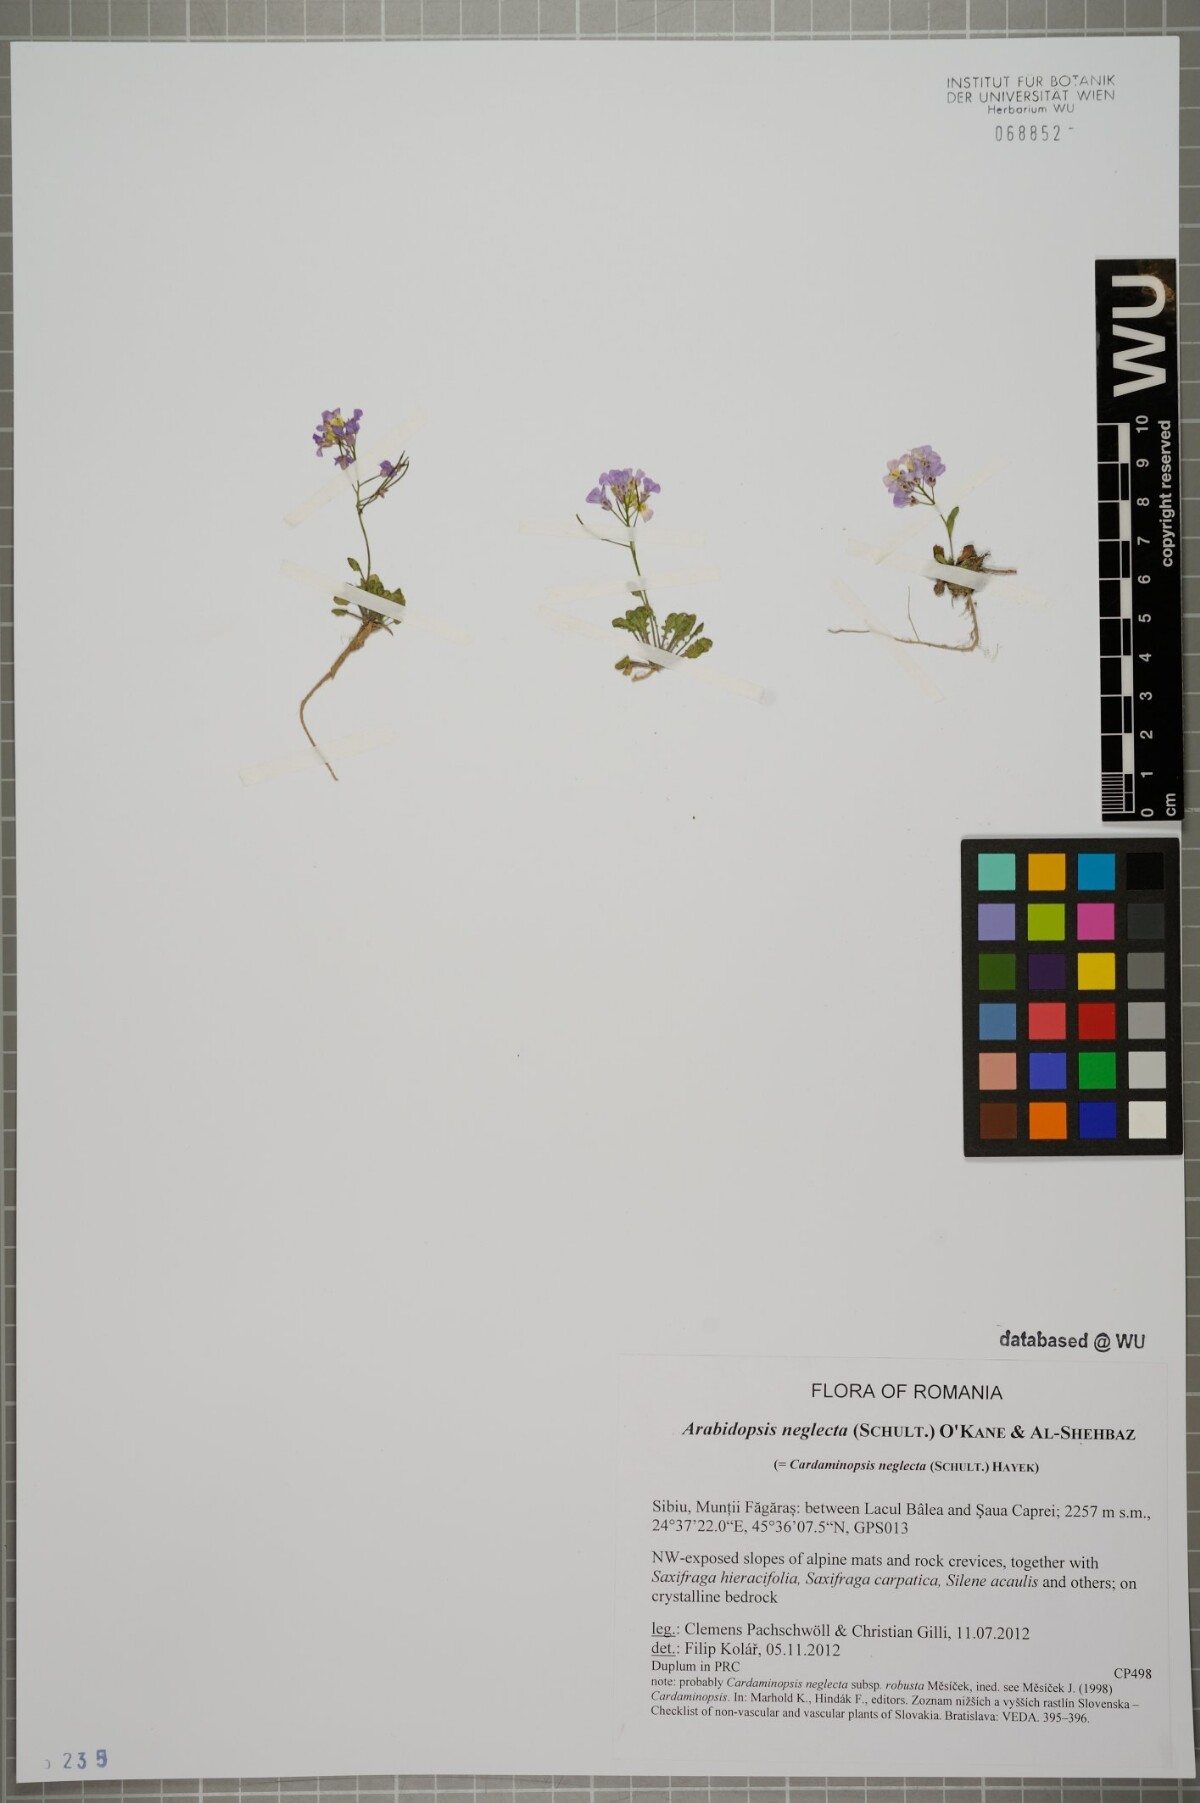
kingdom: Plantae
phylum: Tracheophyta
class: Magnoliopsida
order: Brassicales
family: Brassicaceae
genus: Arabidopsis
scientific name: Arabidopsis neglecta
